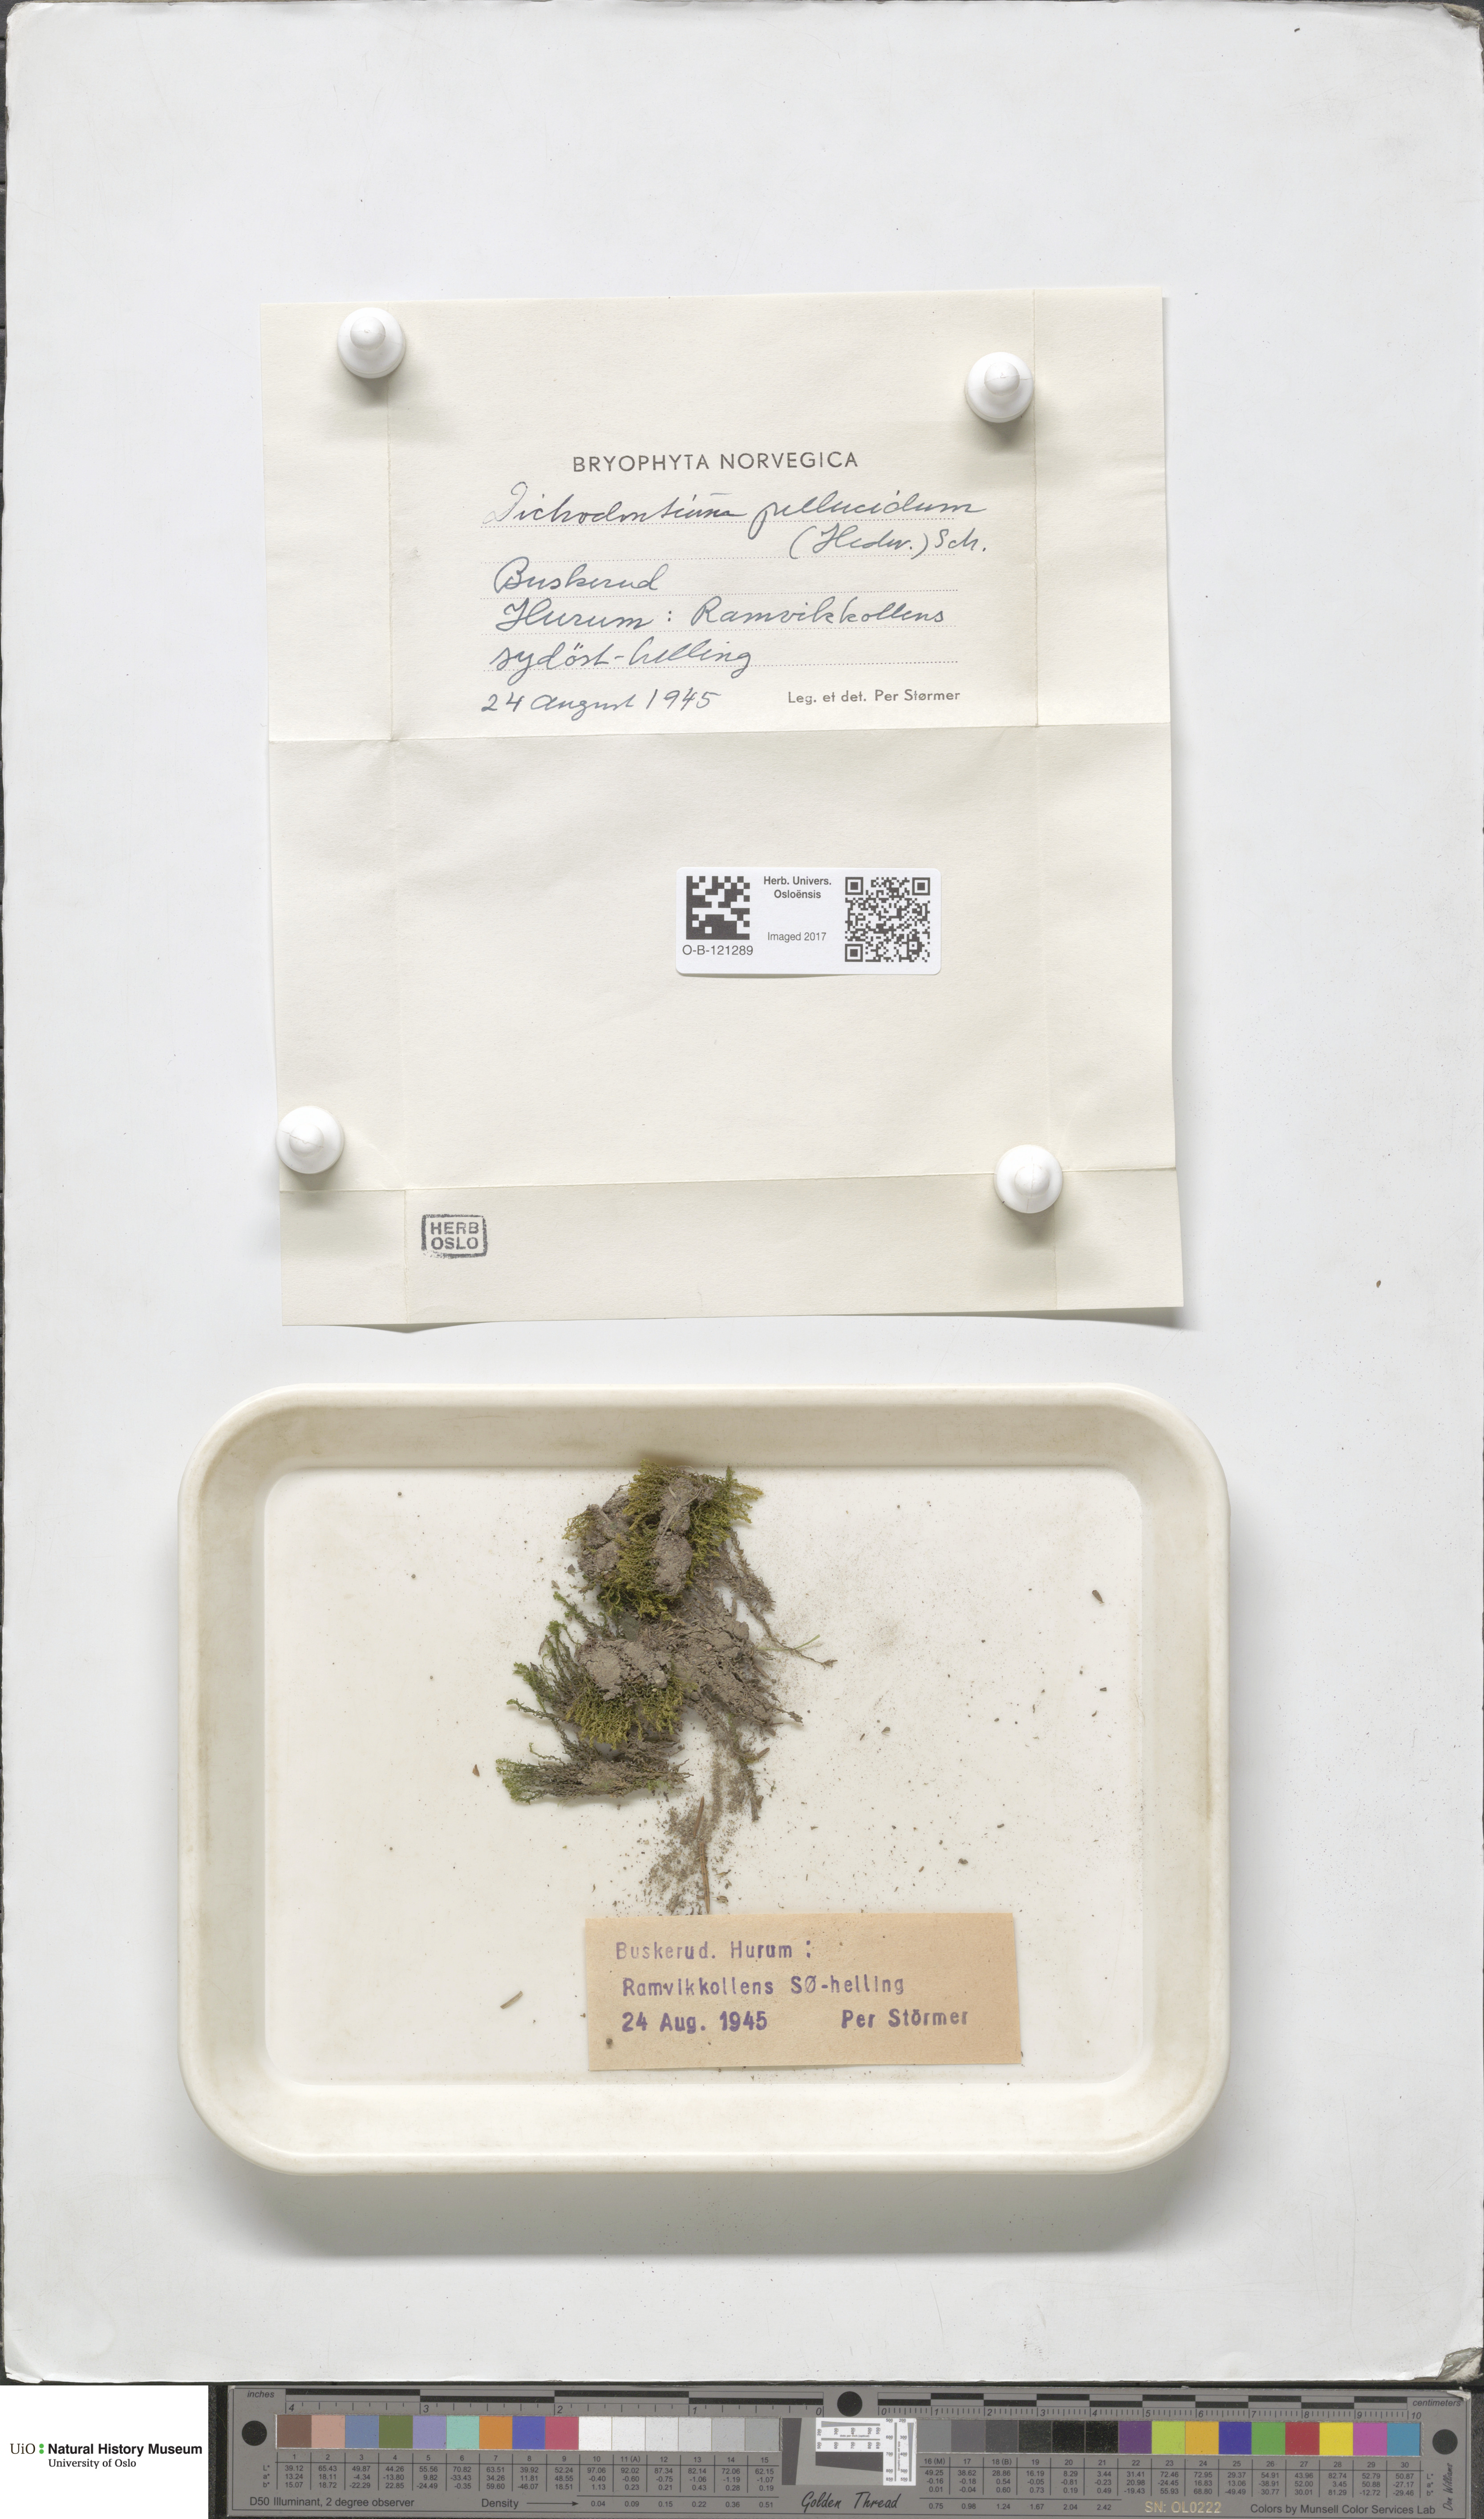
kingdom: Plantae
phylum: Bryophyta
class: Bryopsida
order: Dicranales
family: Aongstroemiaceae
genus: Dichodontium
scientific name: Dichodontium pellucidum
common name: Transparent fork moss
